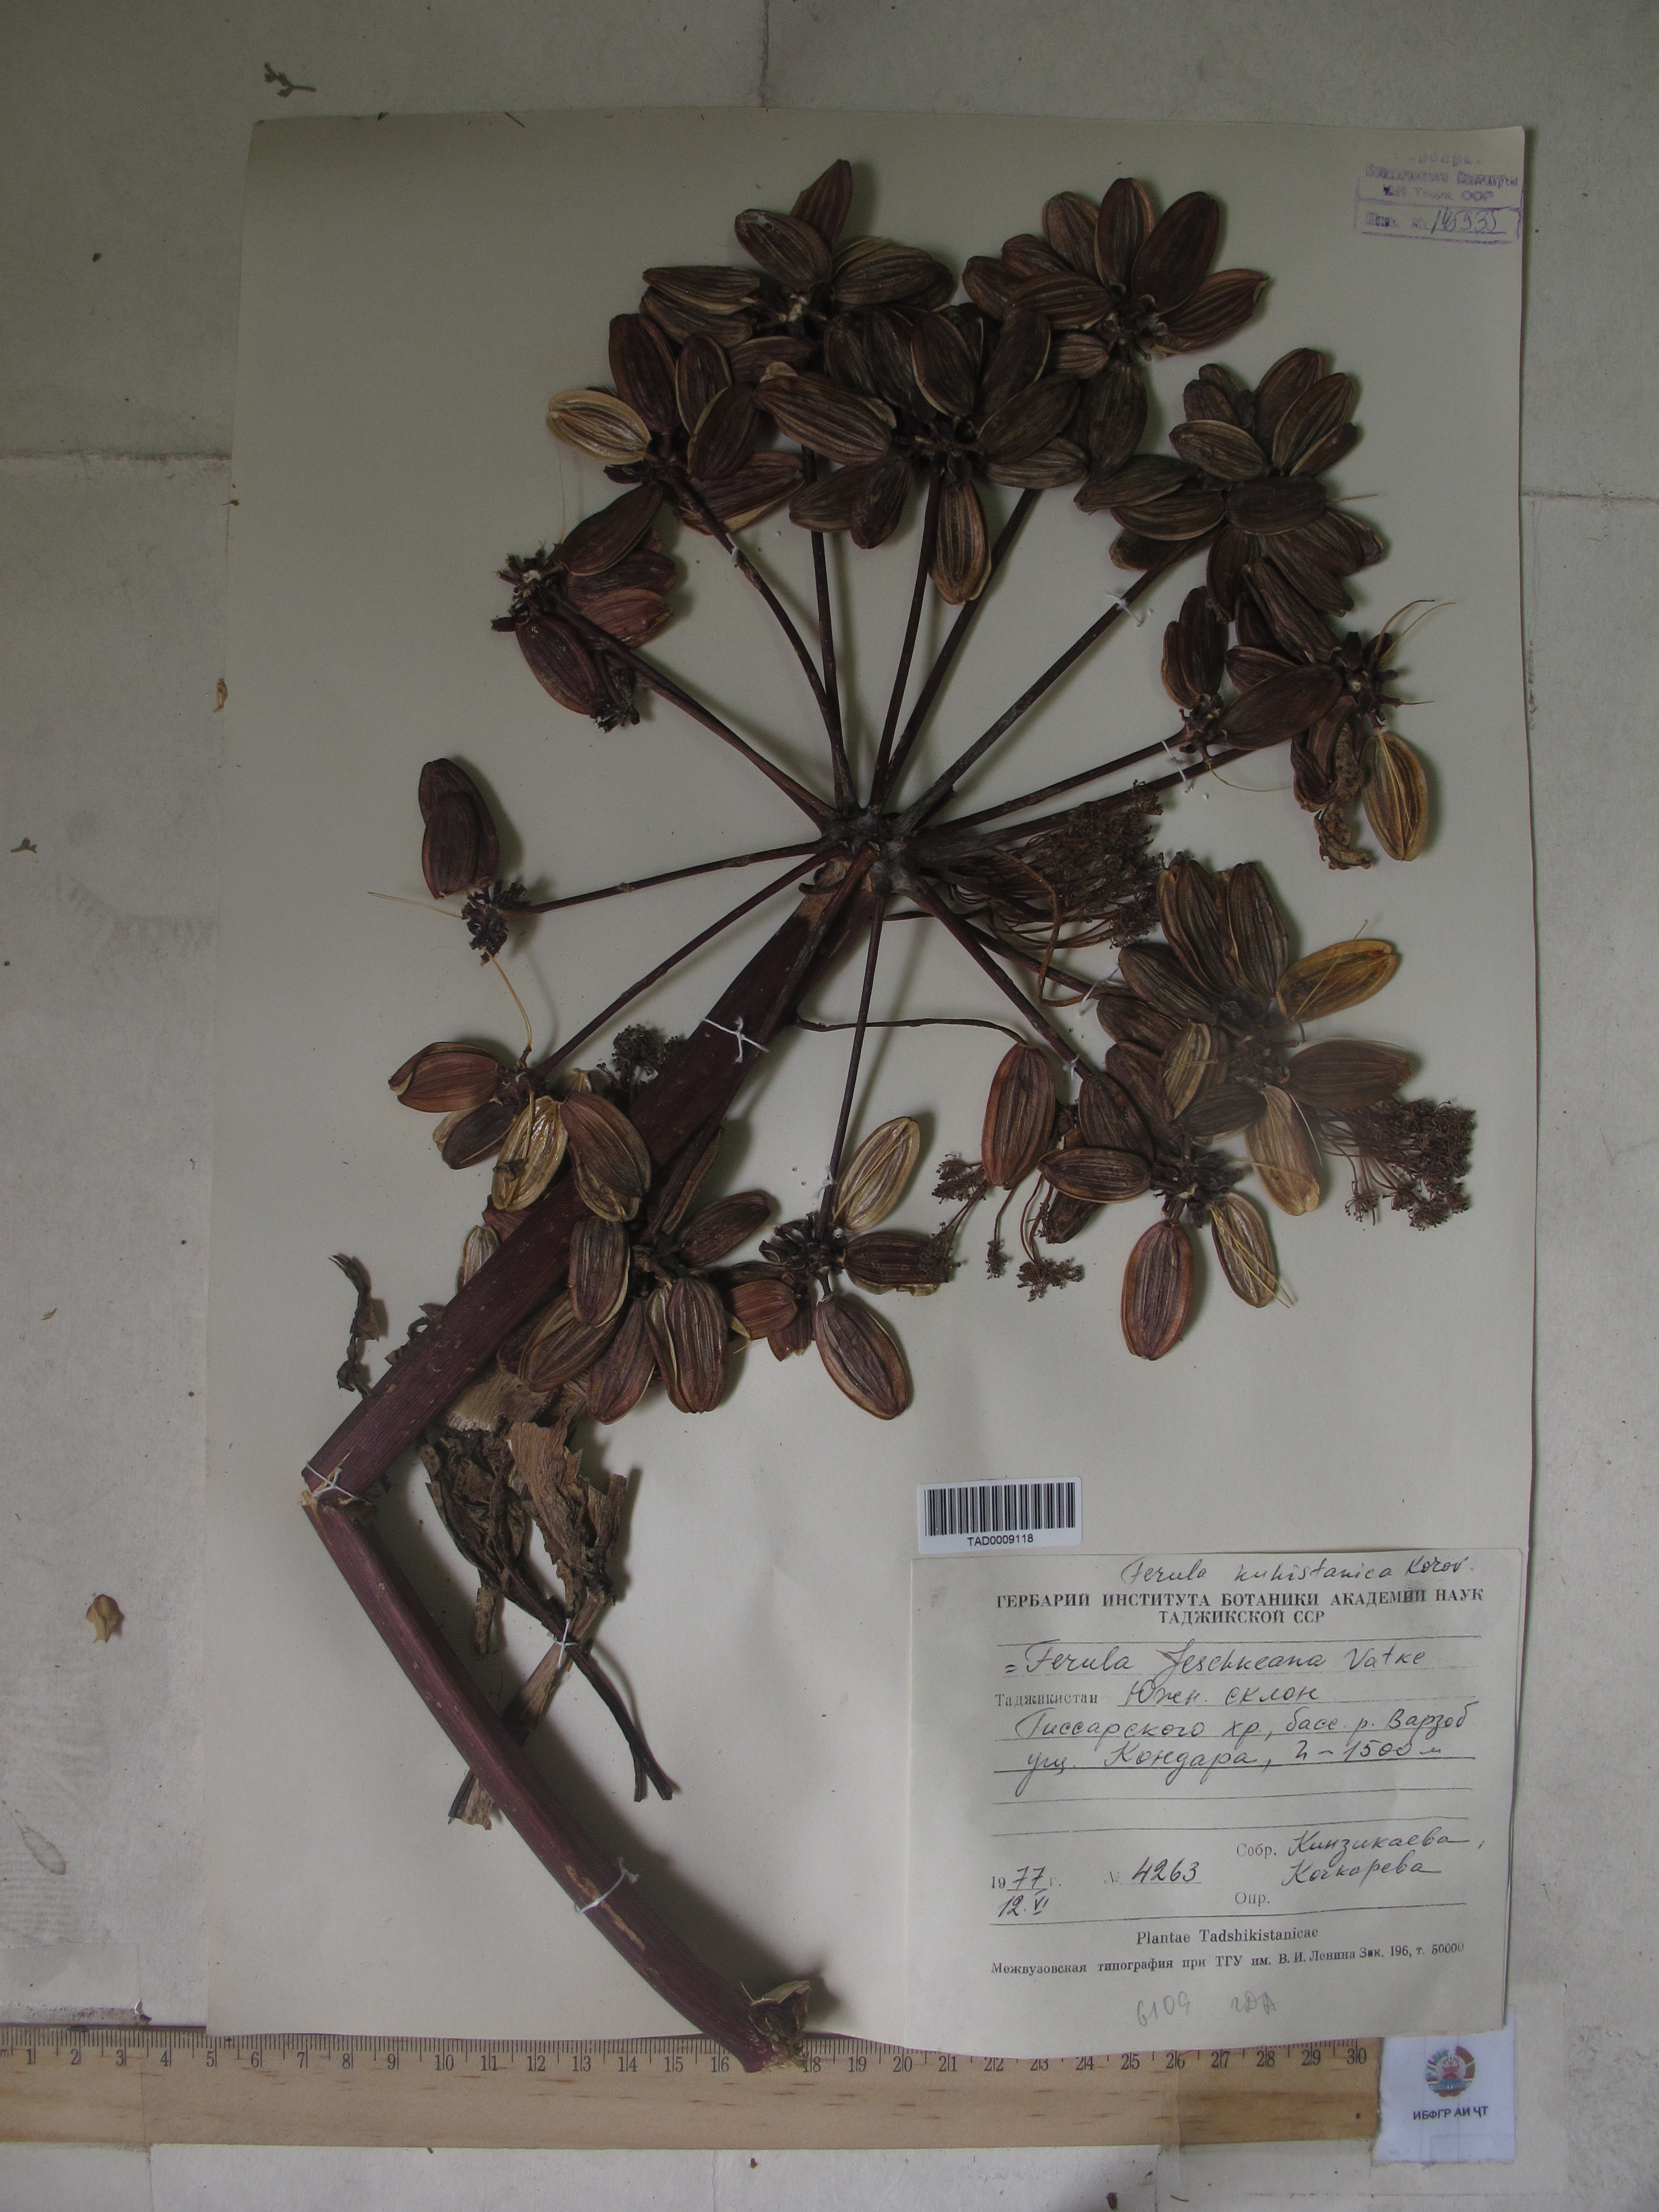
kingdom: Plantae
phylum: Tracheophyta
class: Magnoliopsida
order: Apiales
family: Apiaceae
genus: Ferula
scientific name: Ferula jaeschkeana
